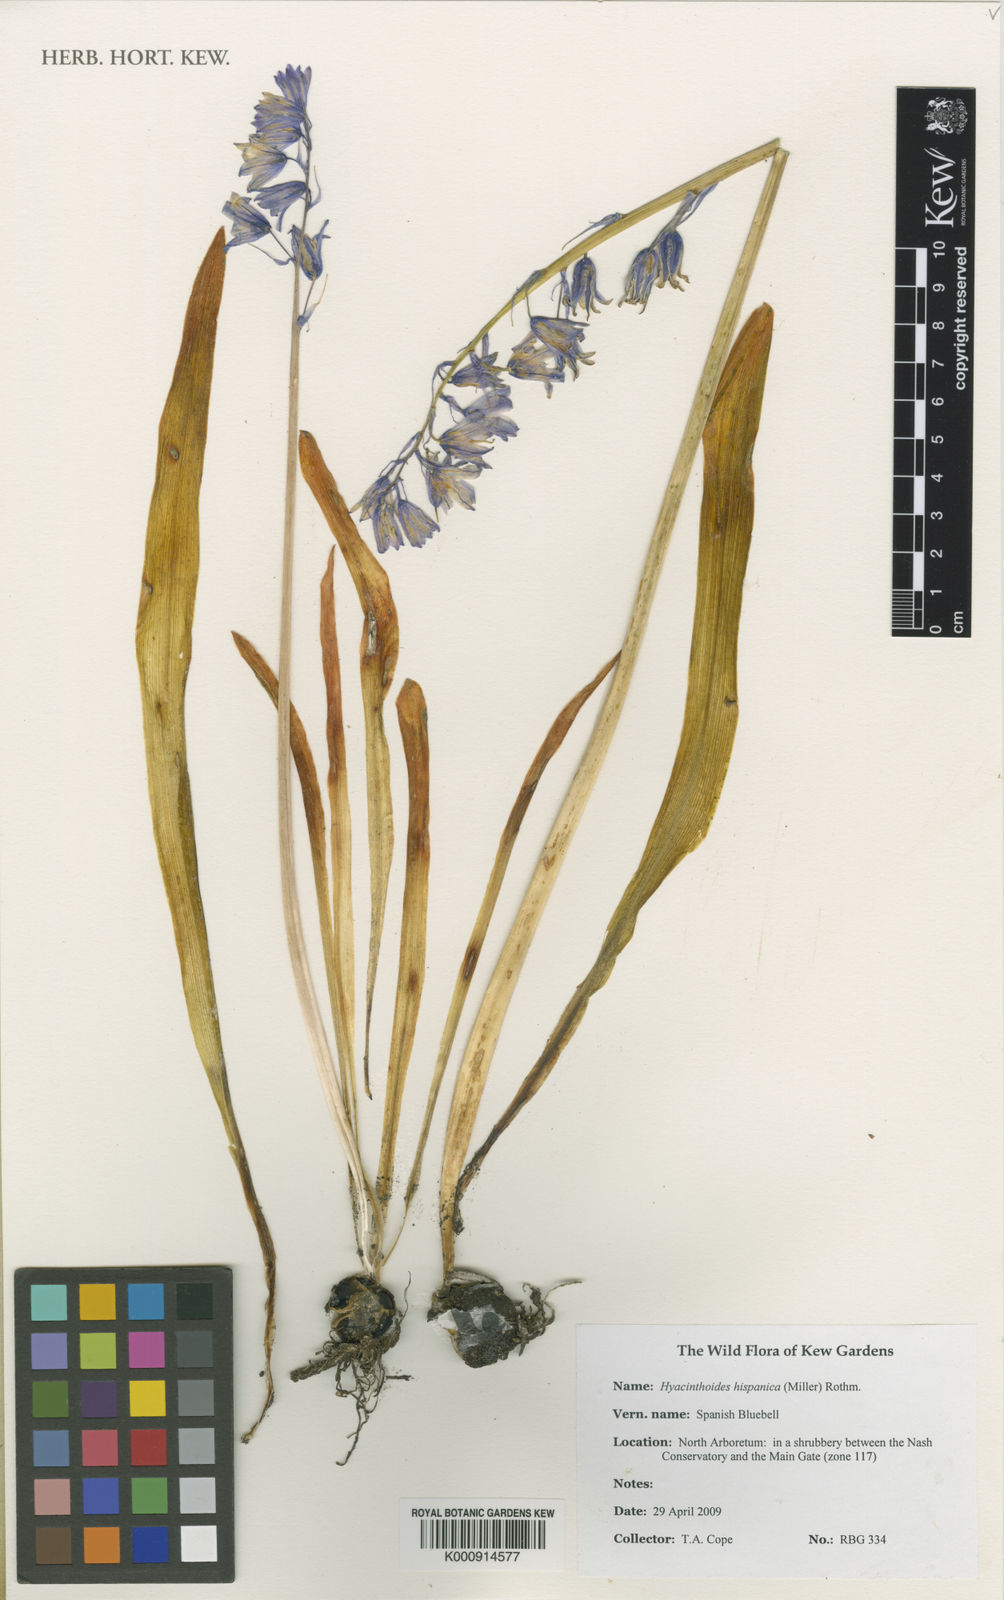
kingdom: Plantae
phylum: Tracheophyta
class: Liliopsida
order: Asparagales
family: Asparagaceae
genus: Hyacinthoides
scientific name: Hyacinthoides hispanica
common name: Spanish bluebell
